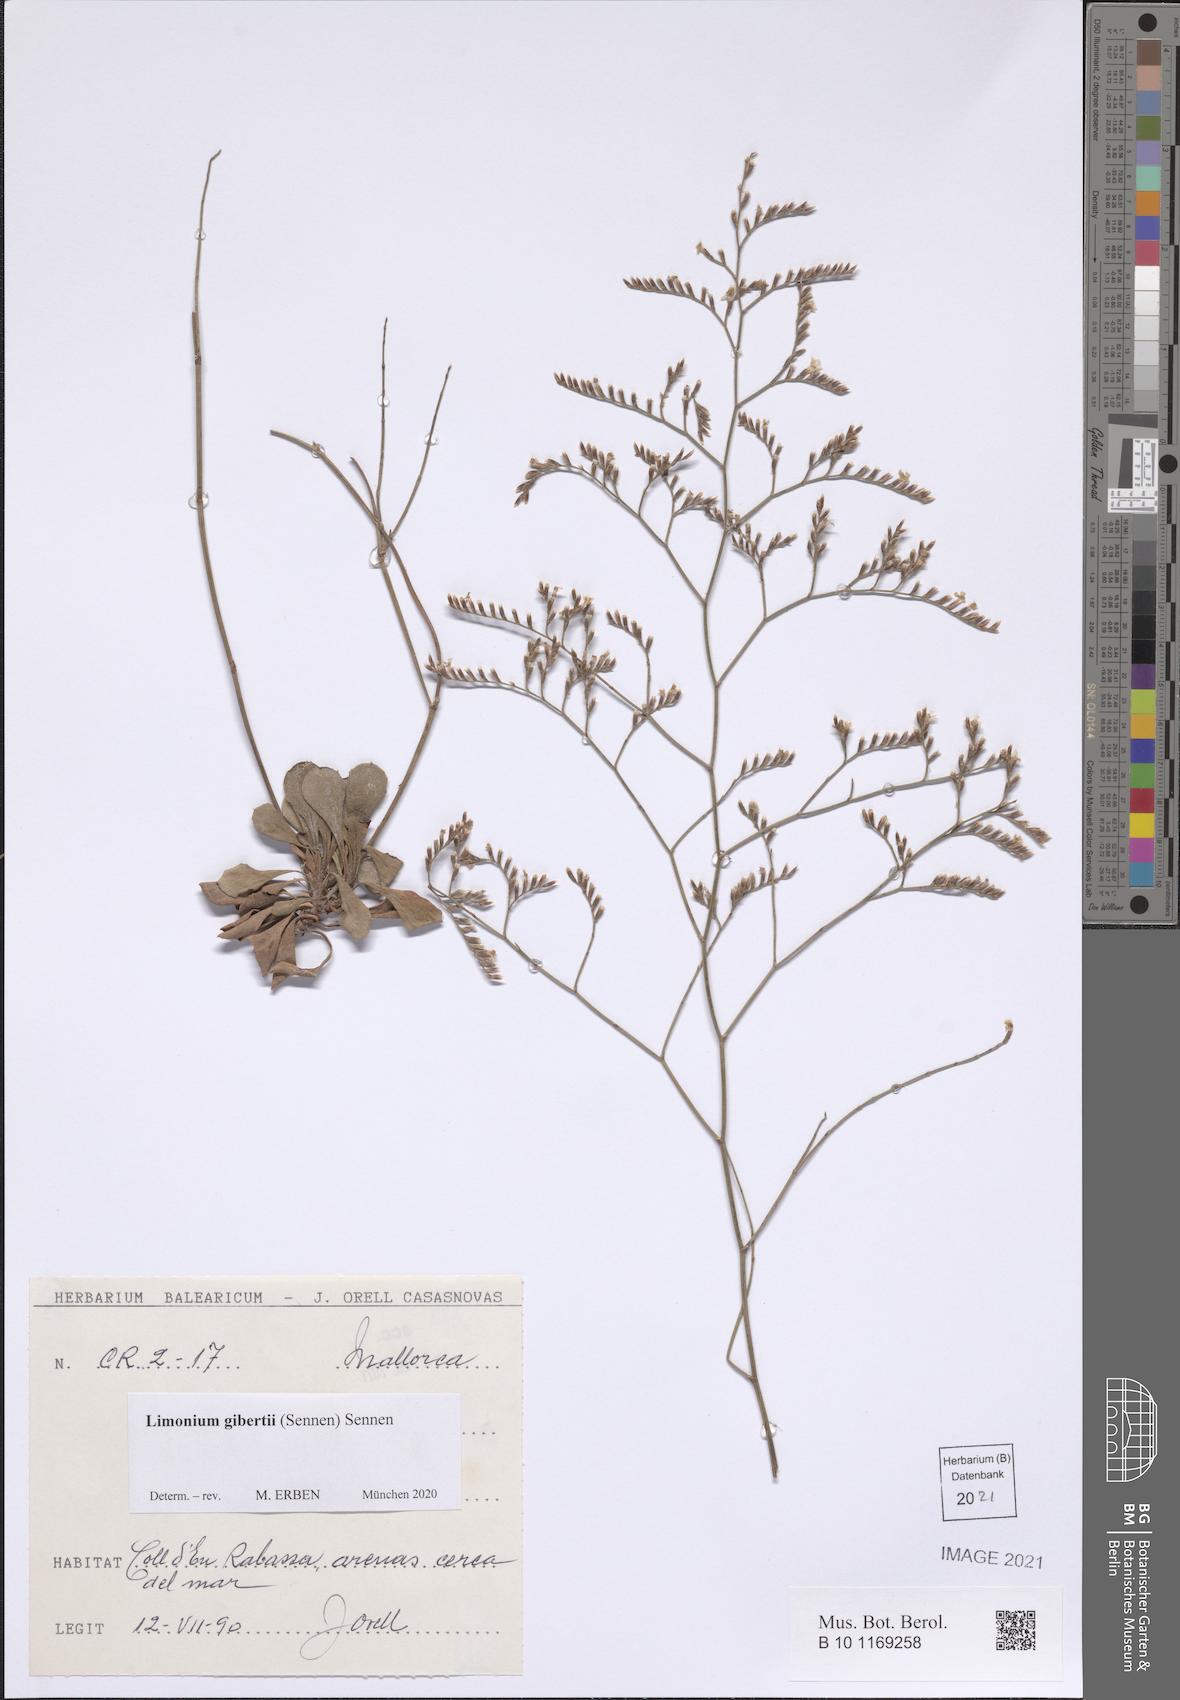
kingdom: Plantae
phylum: Tracheophyta
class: Magnoliopsida
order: Caryophyllales
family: Plumbaginaceae
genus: Limonium
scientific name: Limonium gibertii
